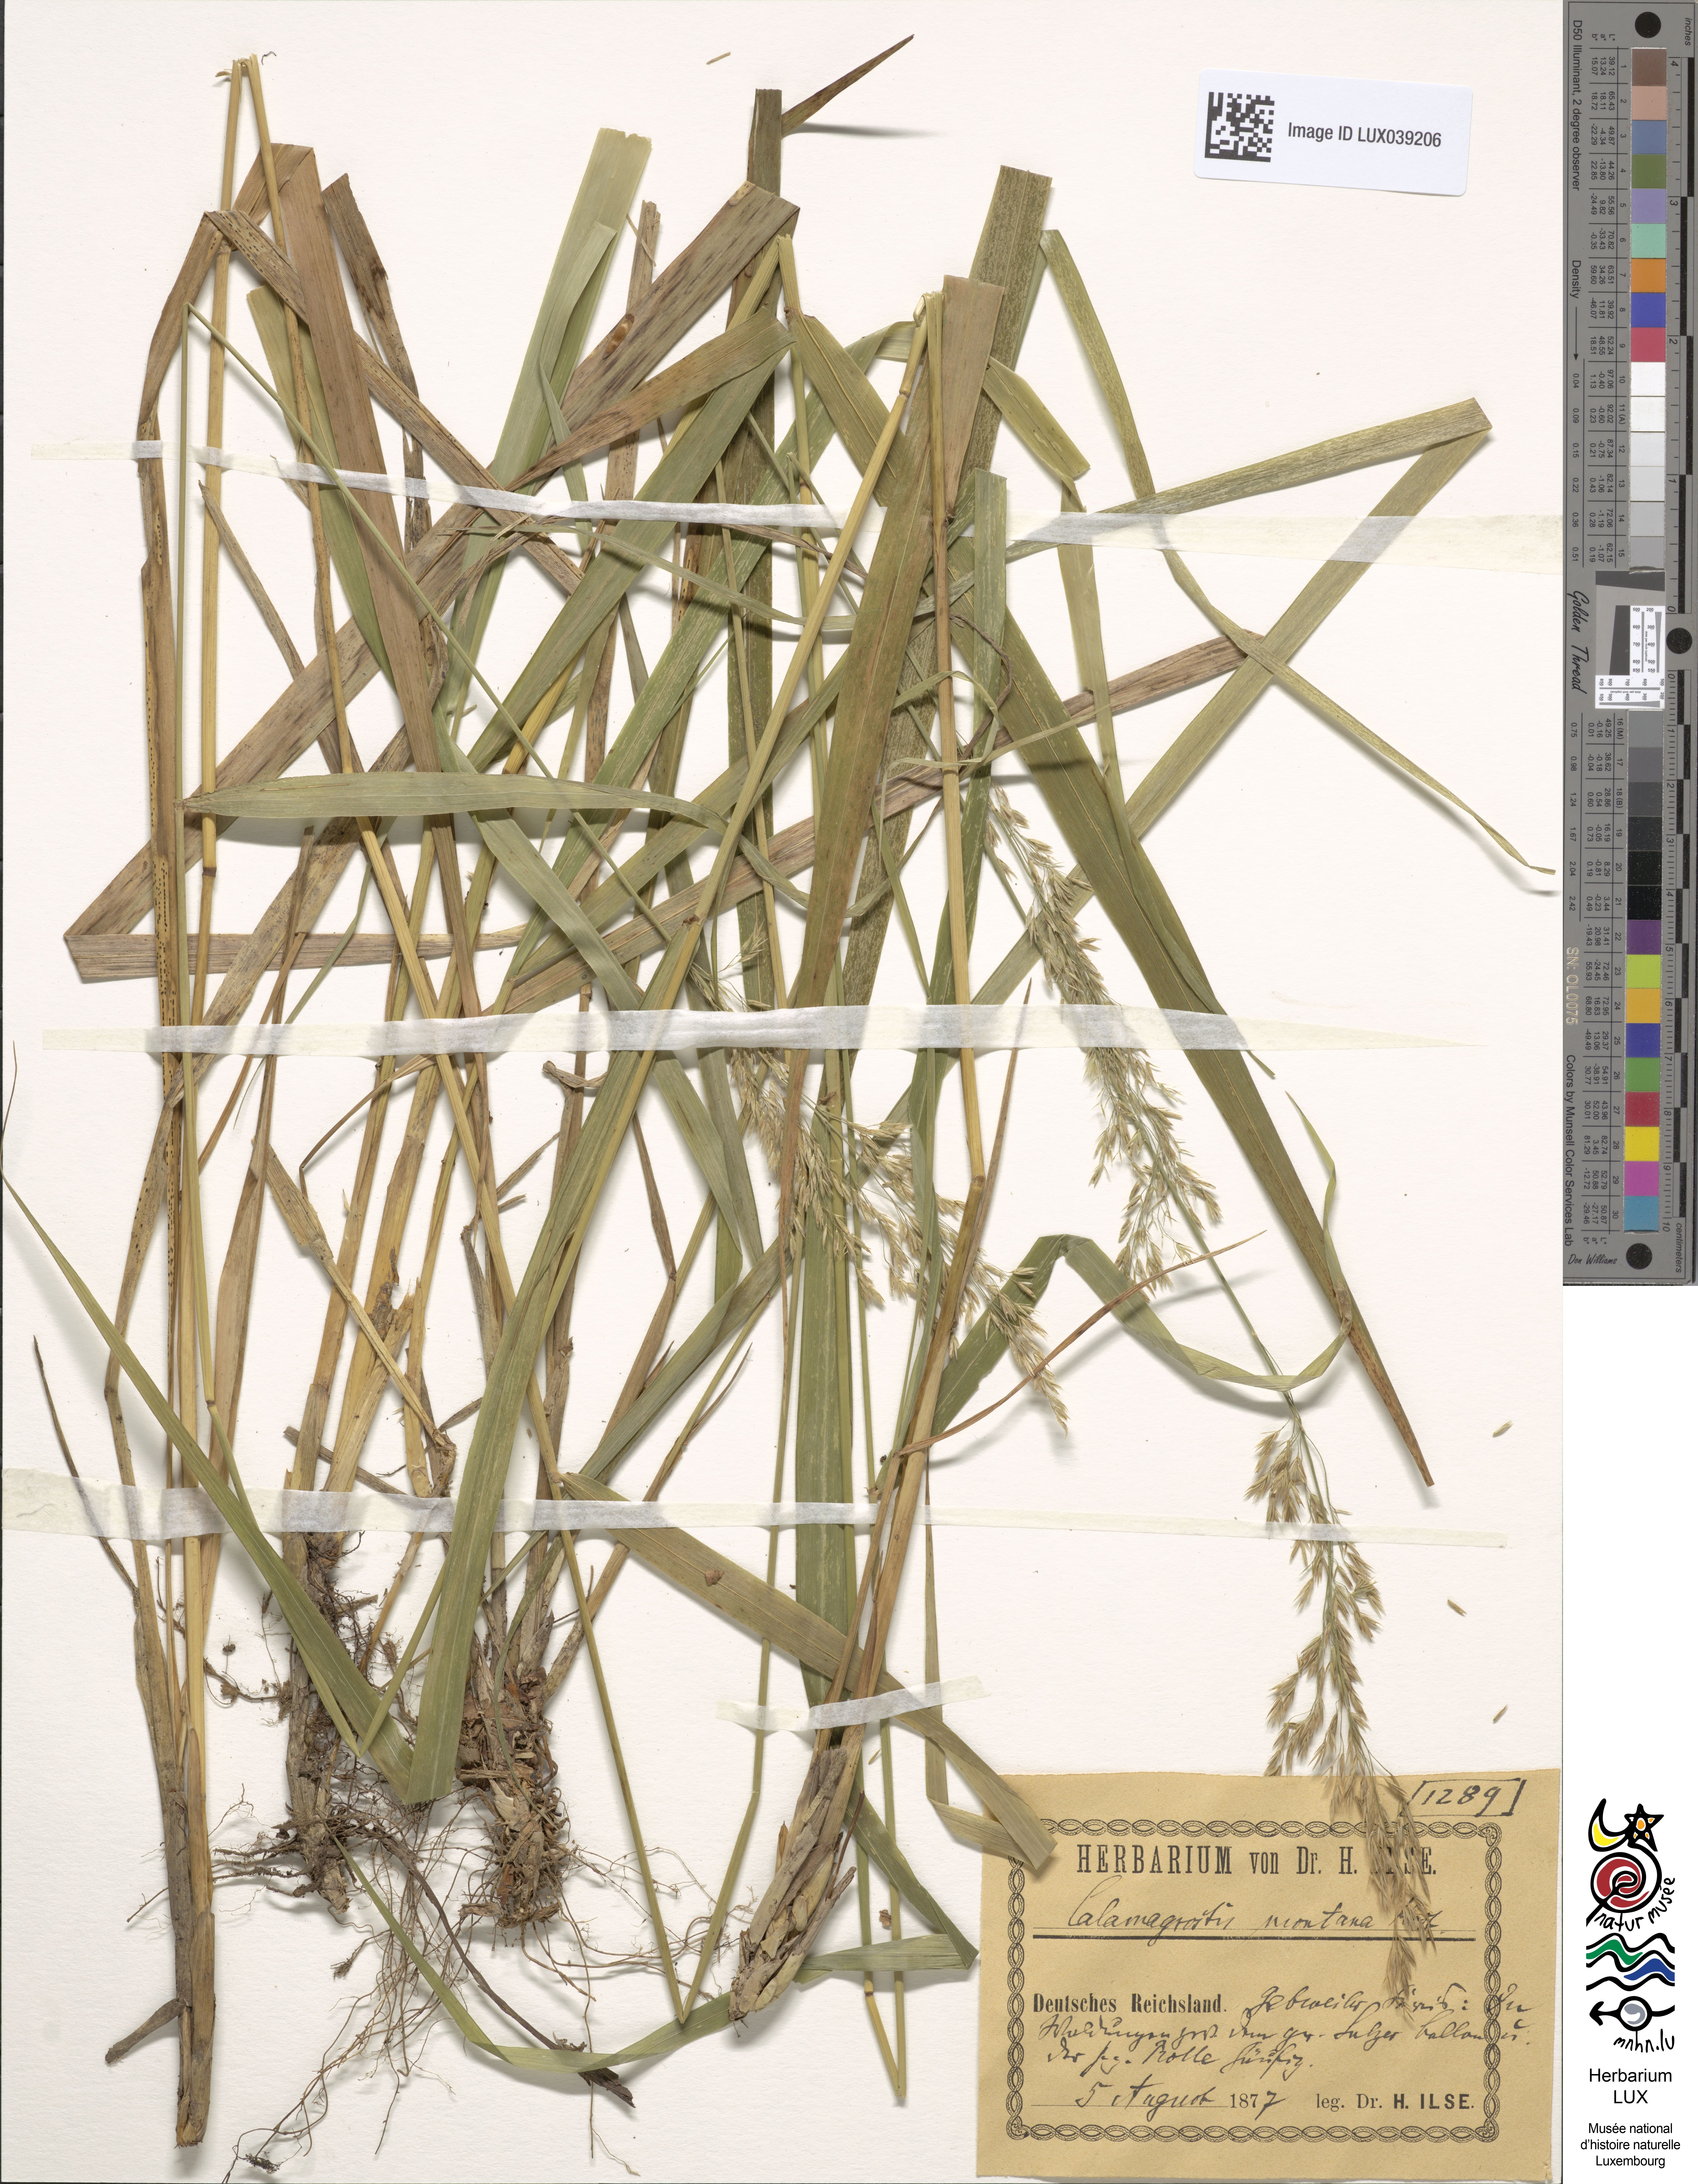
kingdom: Plantae
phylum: Tracheophyta
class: Liliopsida
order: Poales
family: Poaceae
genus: Calamagrostis
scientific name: Calamagrostis arundinacea
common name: Metskastik
